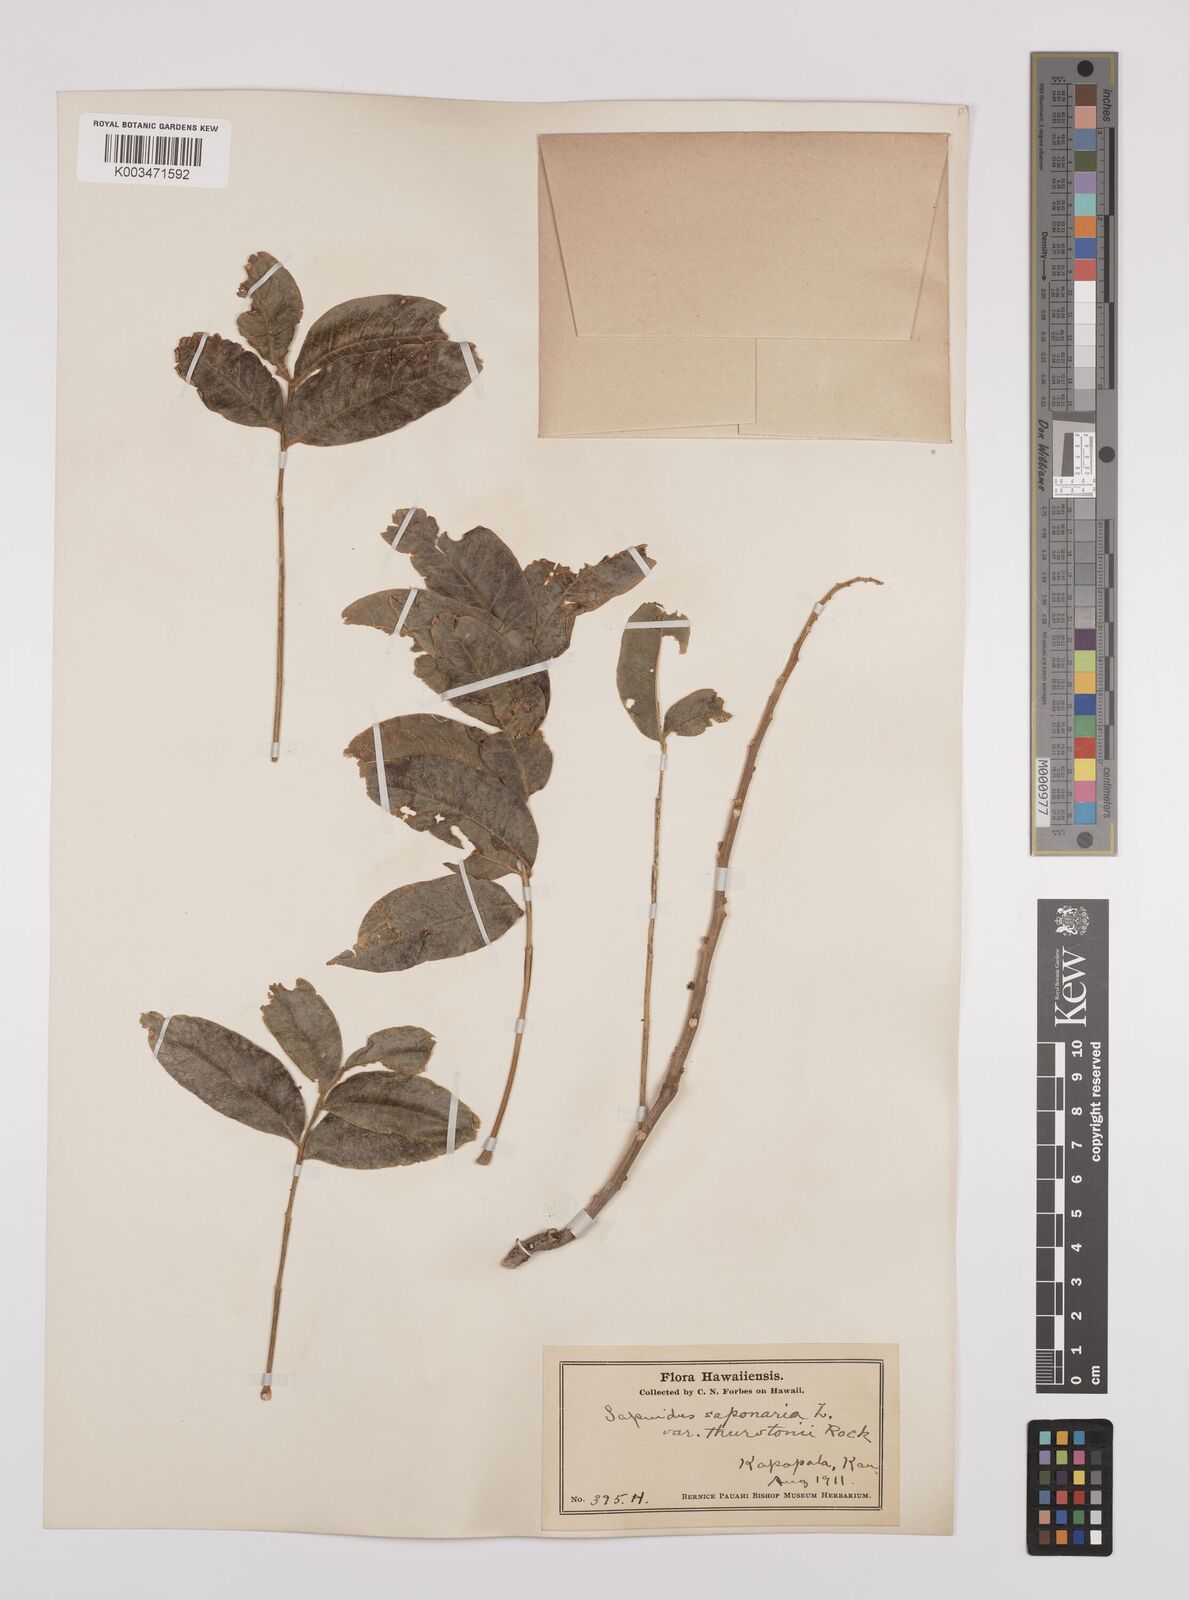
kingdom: Plantae
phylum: Tracheophyta
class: Magnoliopsida
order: Sapindales
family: Sapindaceae
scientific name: Sapindaceae
